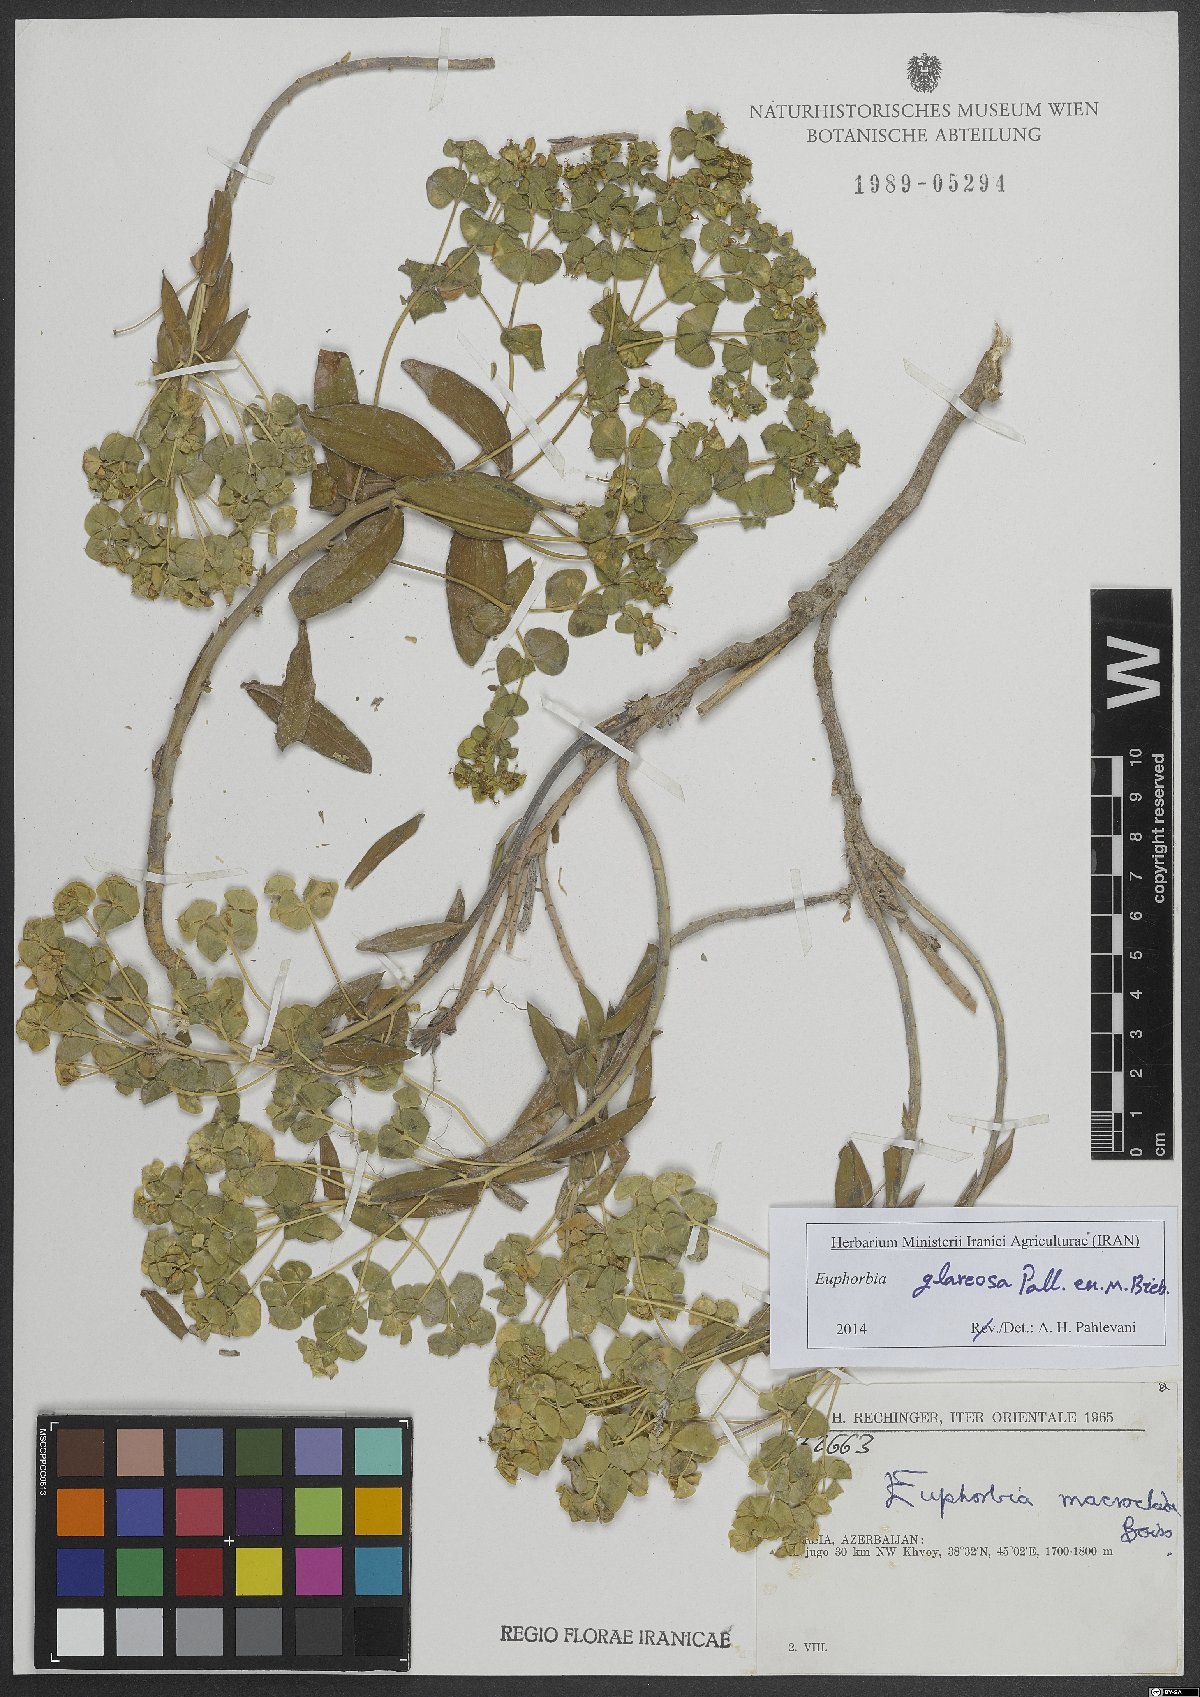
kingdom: Plantae
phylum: Tracheophyta
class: Magnoliopsida
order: Malpighiales
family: Euphorbiaceae
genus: Euphorbia
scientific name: Euphorbia glareosa
